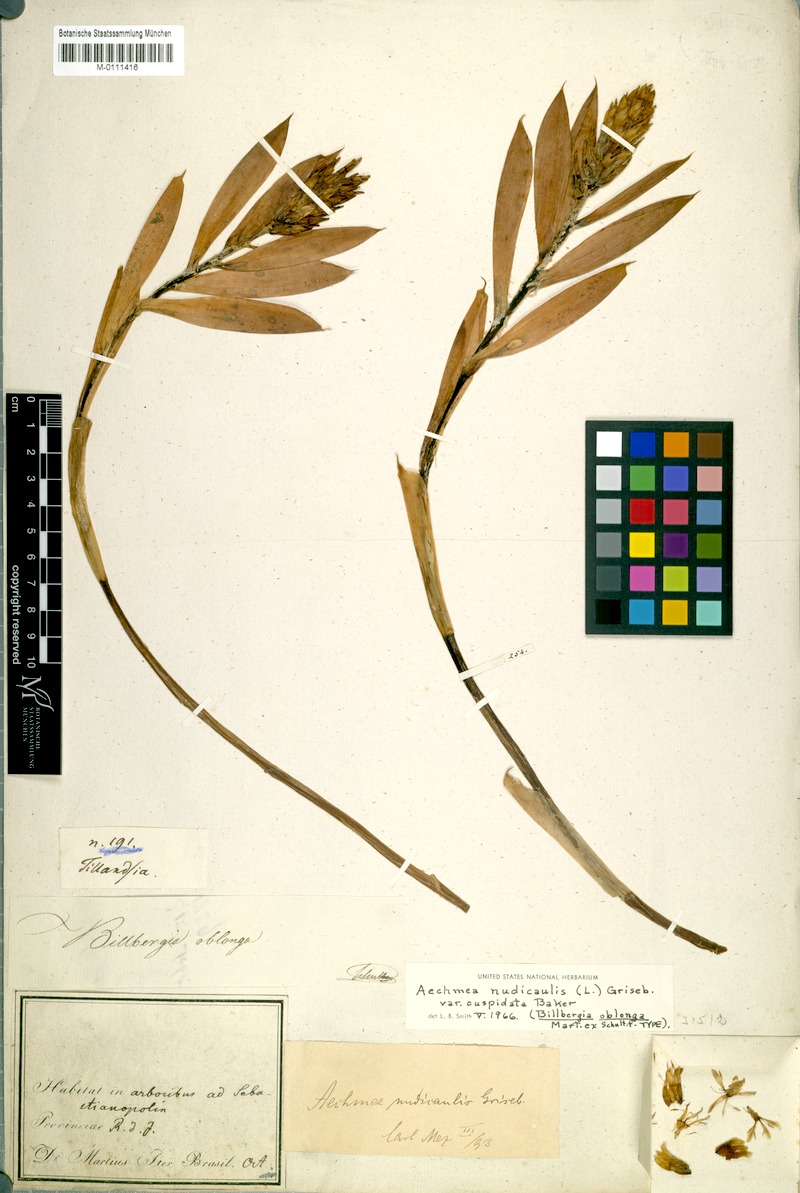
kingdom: Plantae
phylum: Tracheophyta
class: Liliopsida
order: Poales
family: Bromeliaceae
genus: Aechmea
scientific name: Aechmea nudicaulis
